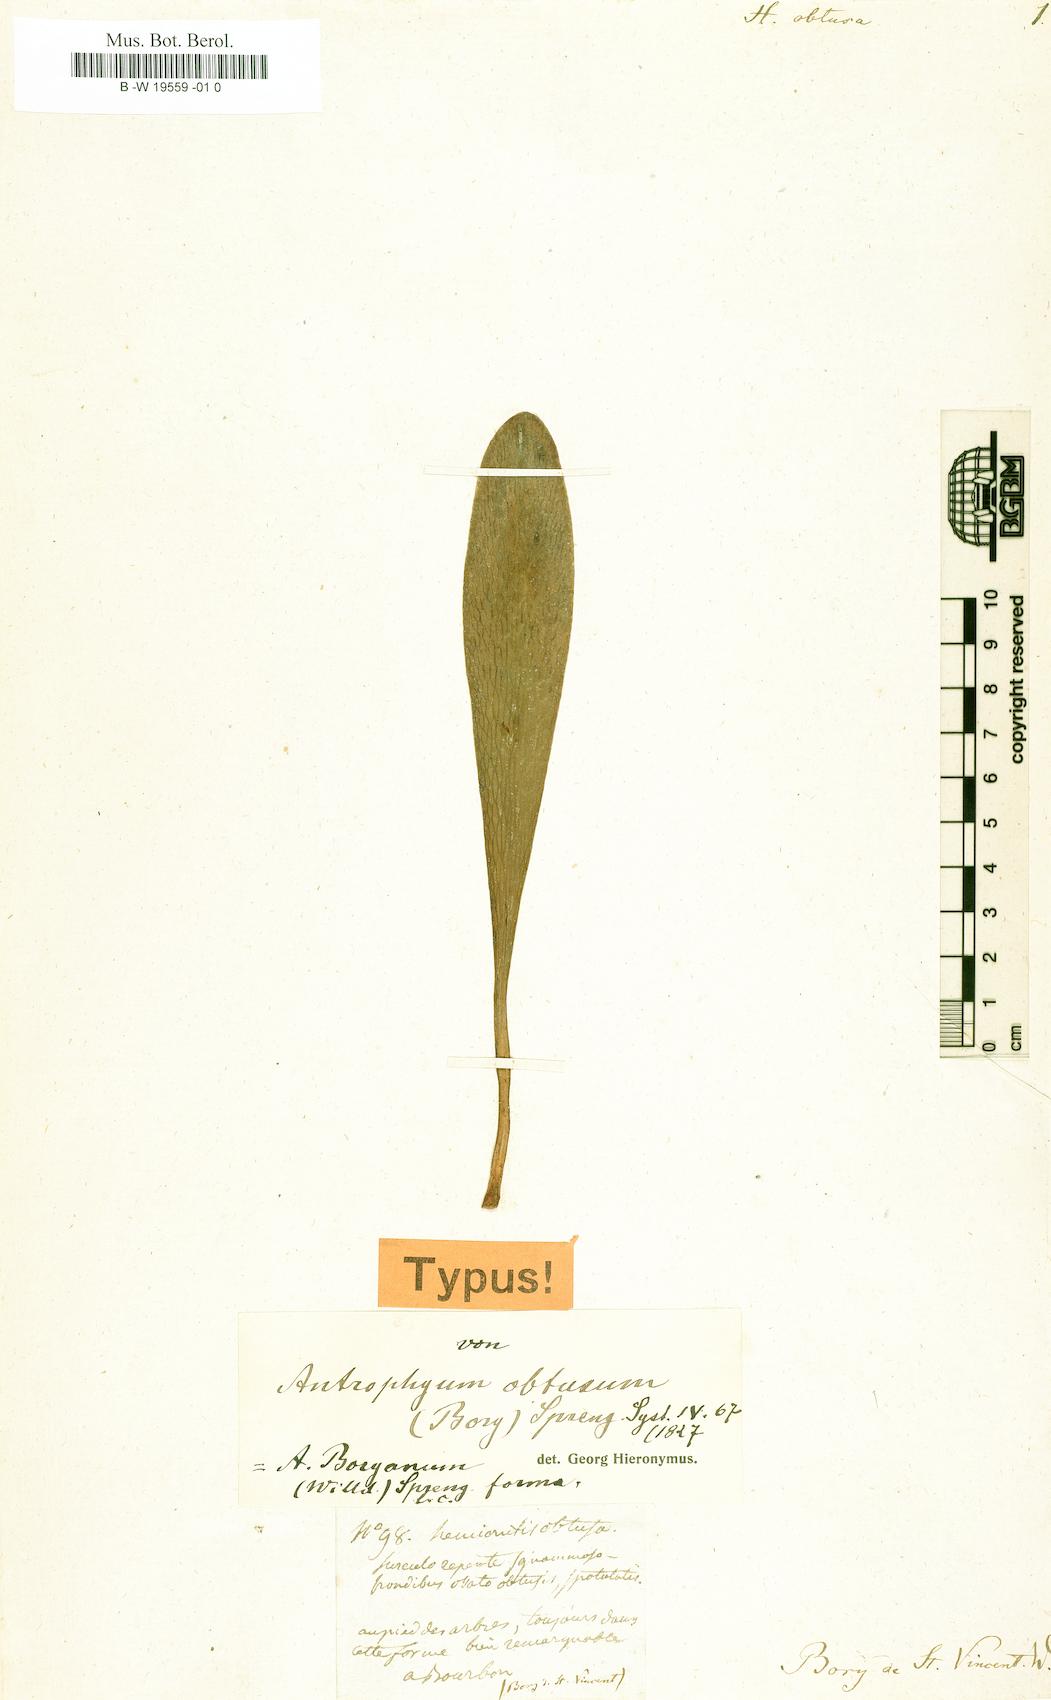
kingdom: Plantae
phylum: Tracheophyta
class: Polypodiopsida
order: Polypodiales
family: Pteridaceae
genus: Antrophyopsis
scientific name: Antrophyopsis boryana
